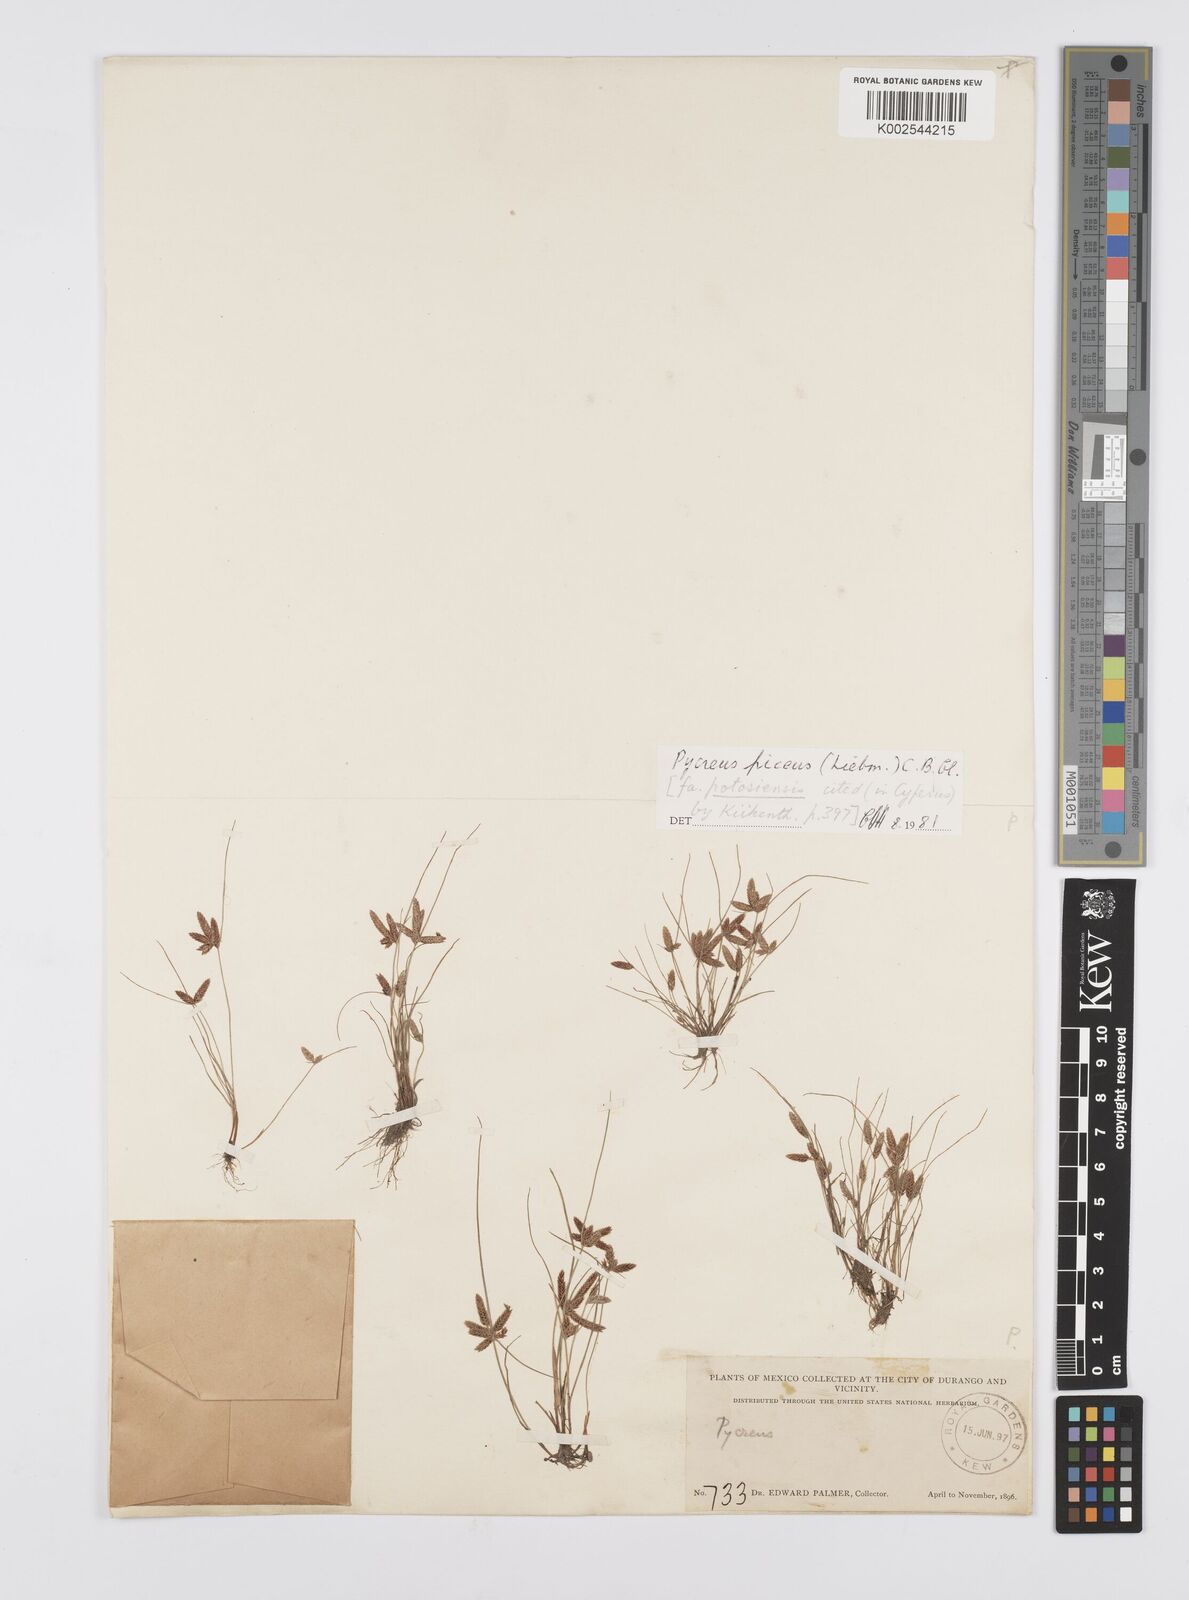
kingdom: Plantae
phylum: Tracheophyta
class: Liliopsida
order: Poales
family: Cyperaceae
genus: Cyperus
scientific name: Cyperus flavescens
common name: Yellow galingale
